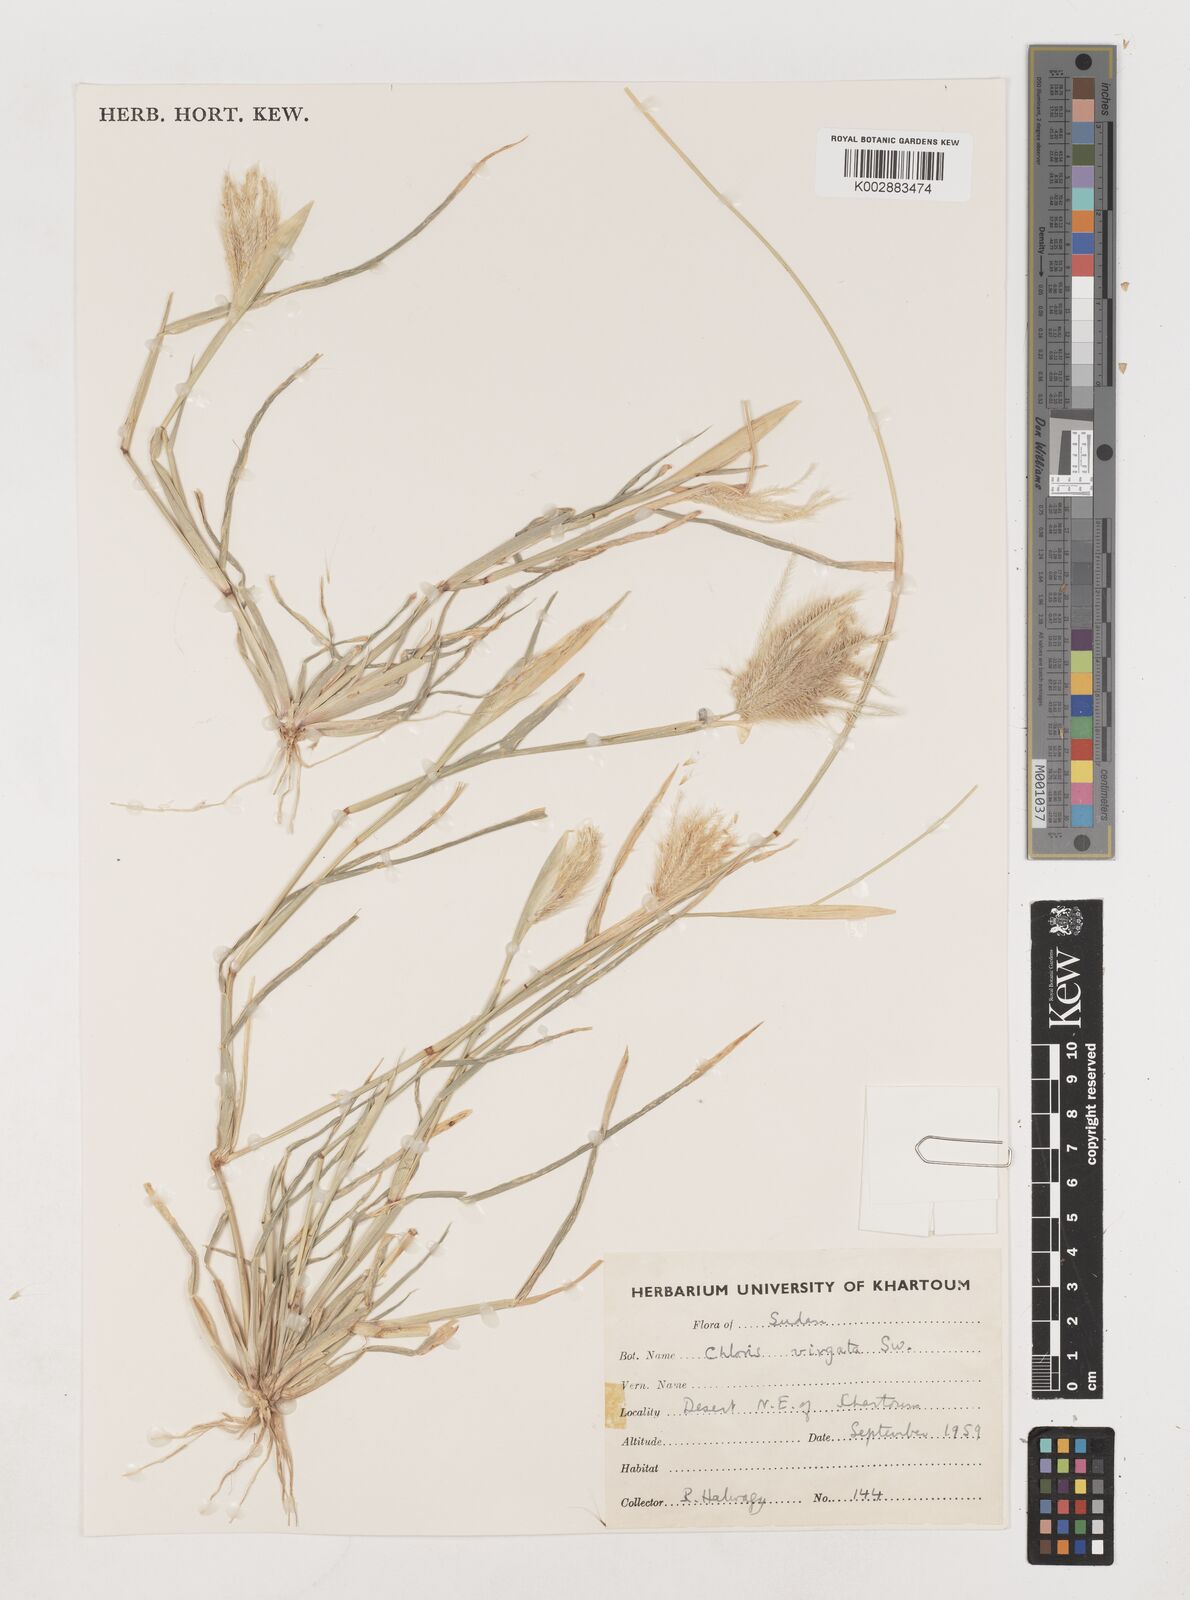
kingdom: Plantae
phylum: Tracheophyta
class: Liliopsida
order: Poales
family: Poaceae
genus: Chloris
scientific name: Chloris virgata
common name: Feathery rhodes-grass
